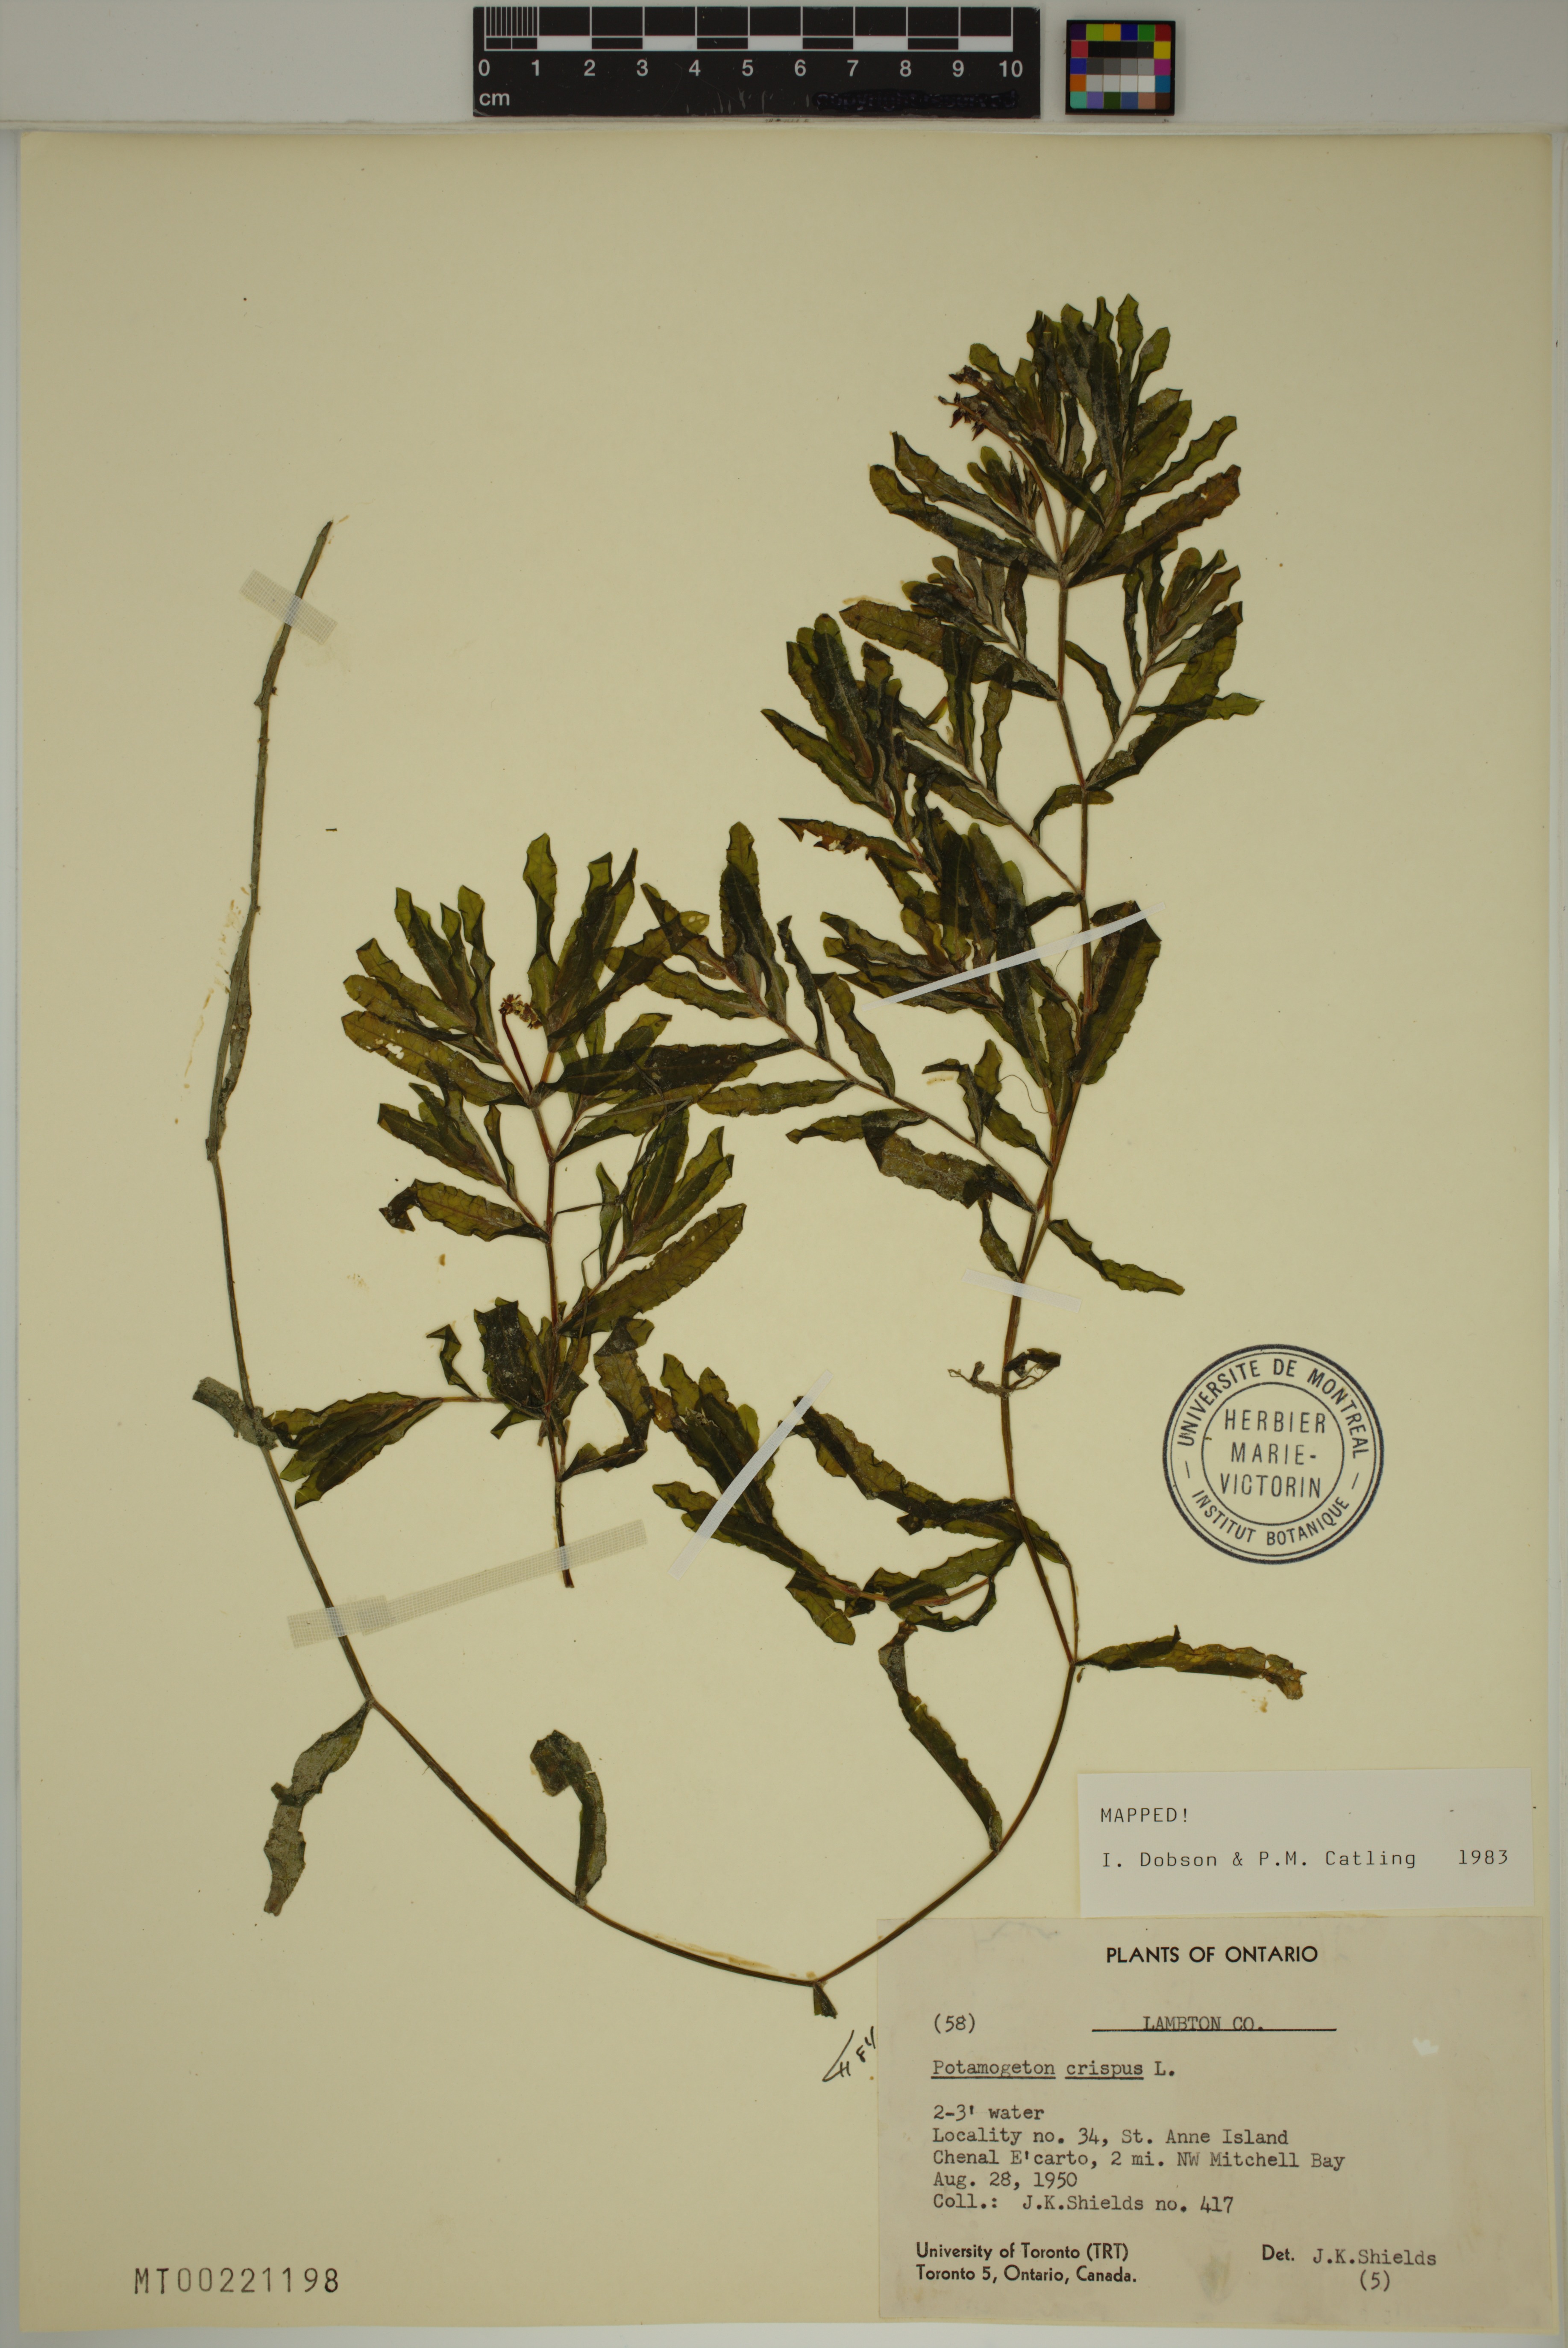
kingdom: Plantae
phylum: Tracheophyta
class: Liliopsida
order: Alismatales
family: Potamogetonaceae
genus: Potamogeton
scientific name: Potamogeton crispus
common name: Curled pondweed
